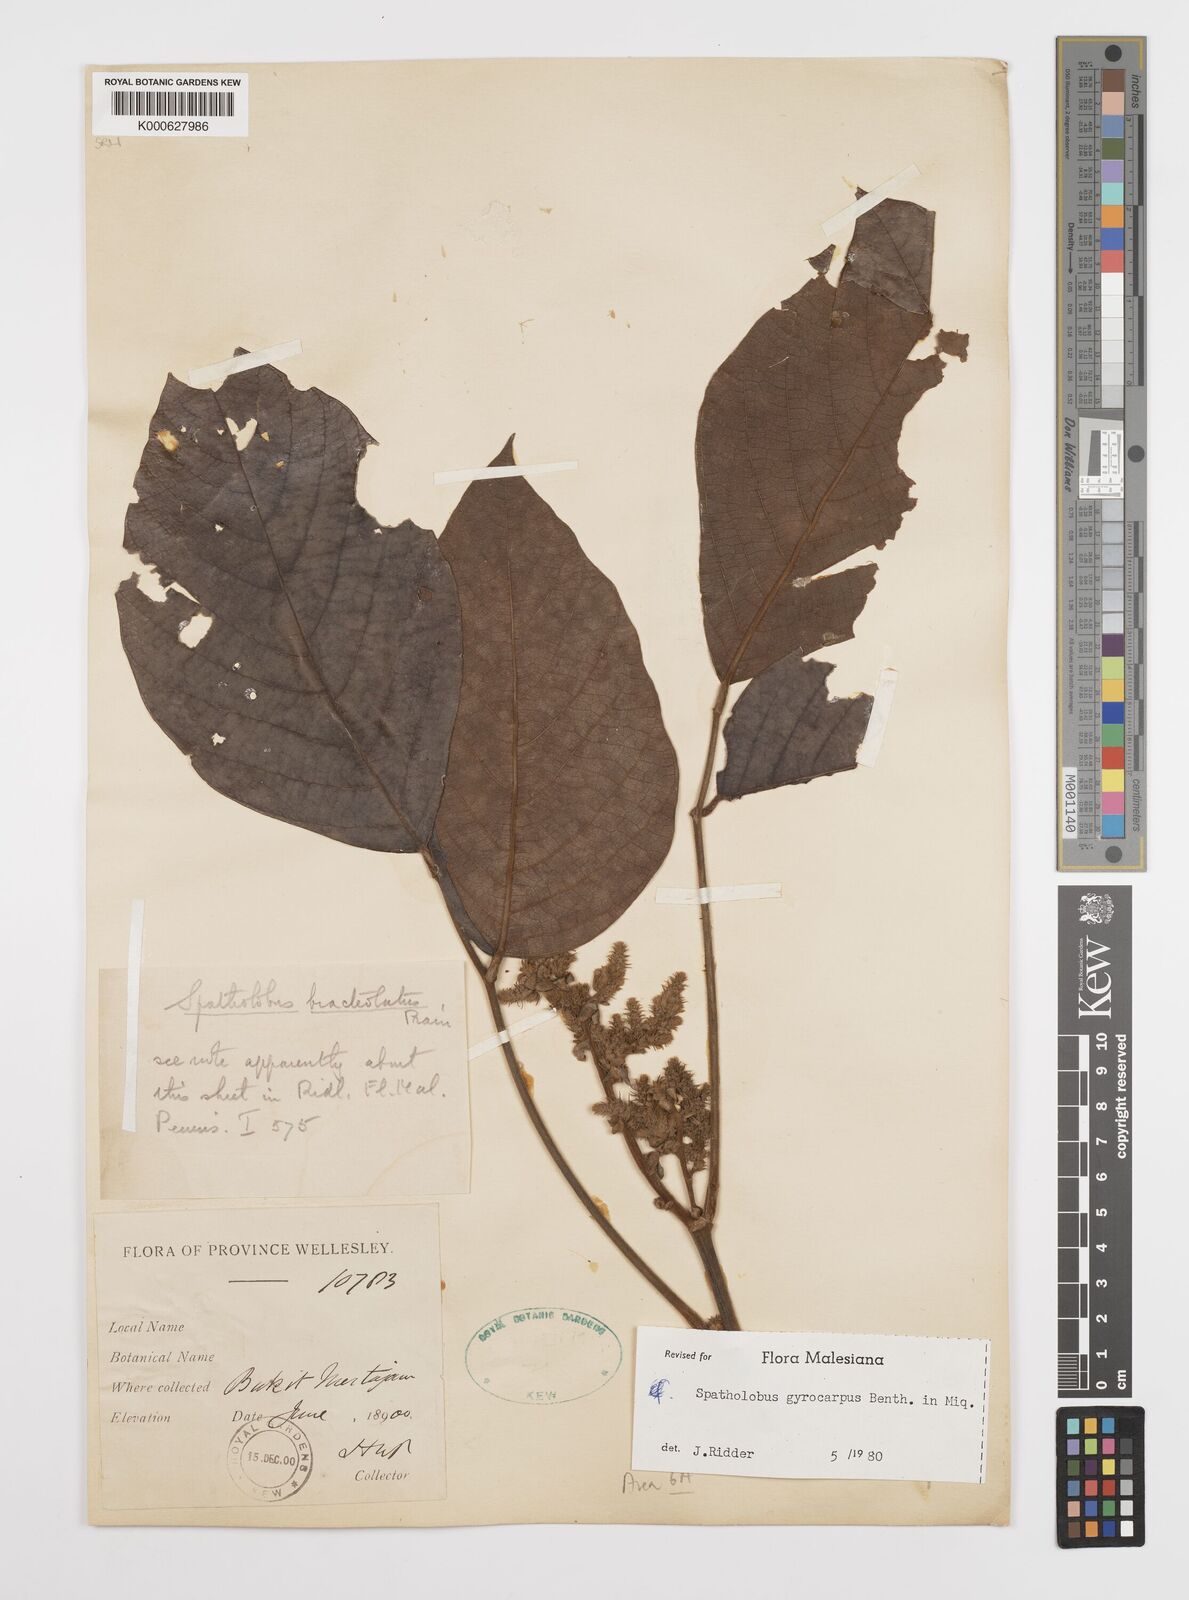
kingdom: Plantae
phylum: Tracheophyta
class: Magnoliopsida
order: Fabales
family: Fabaceae
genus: Spatholobus
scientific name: Spatholobus gyrocarpus
